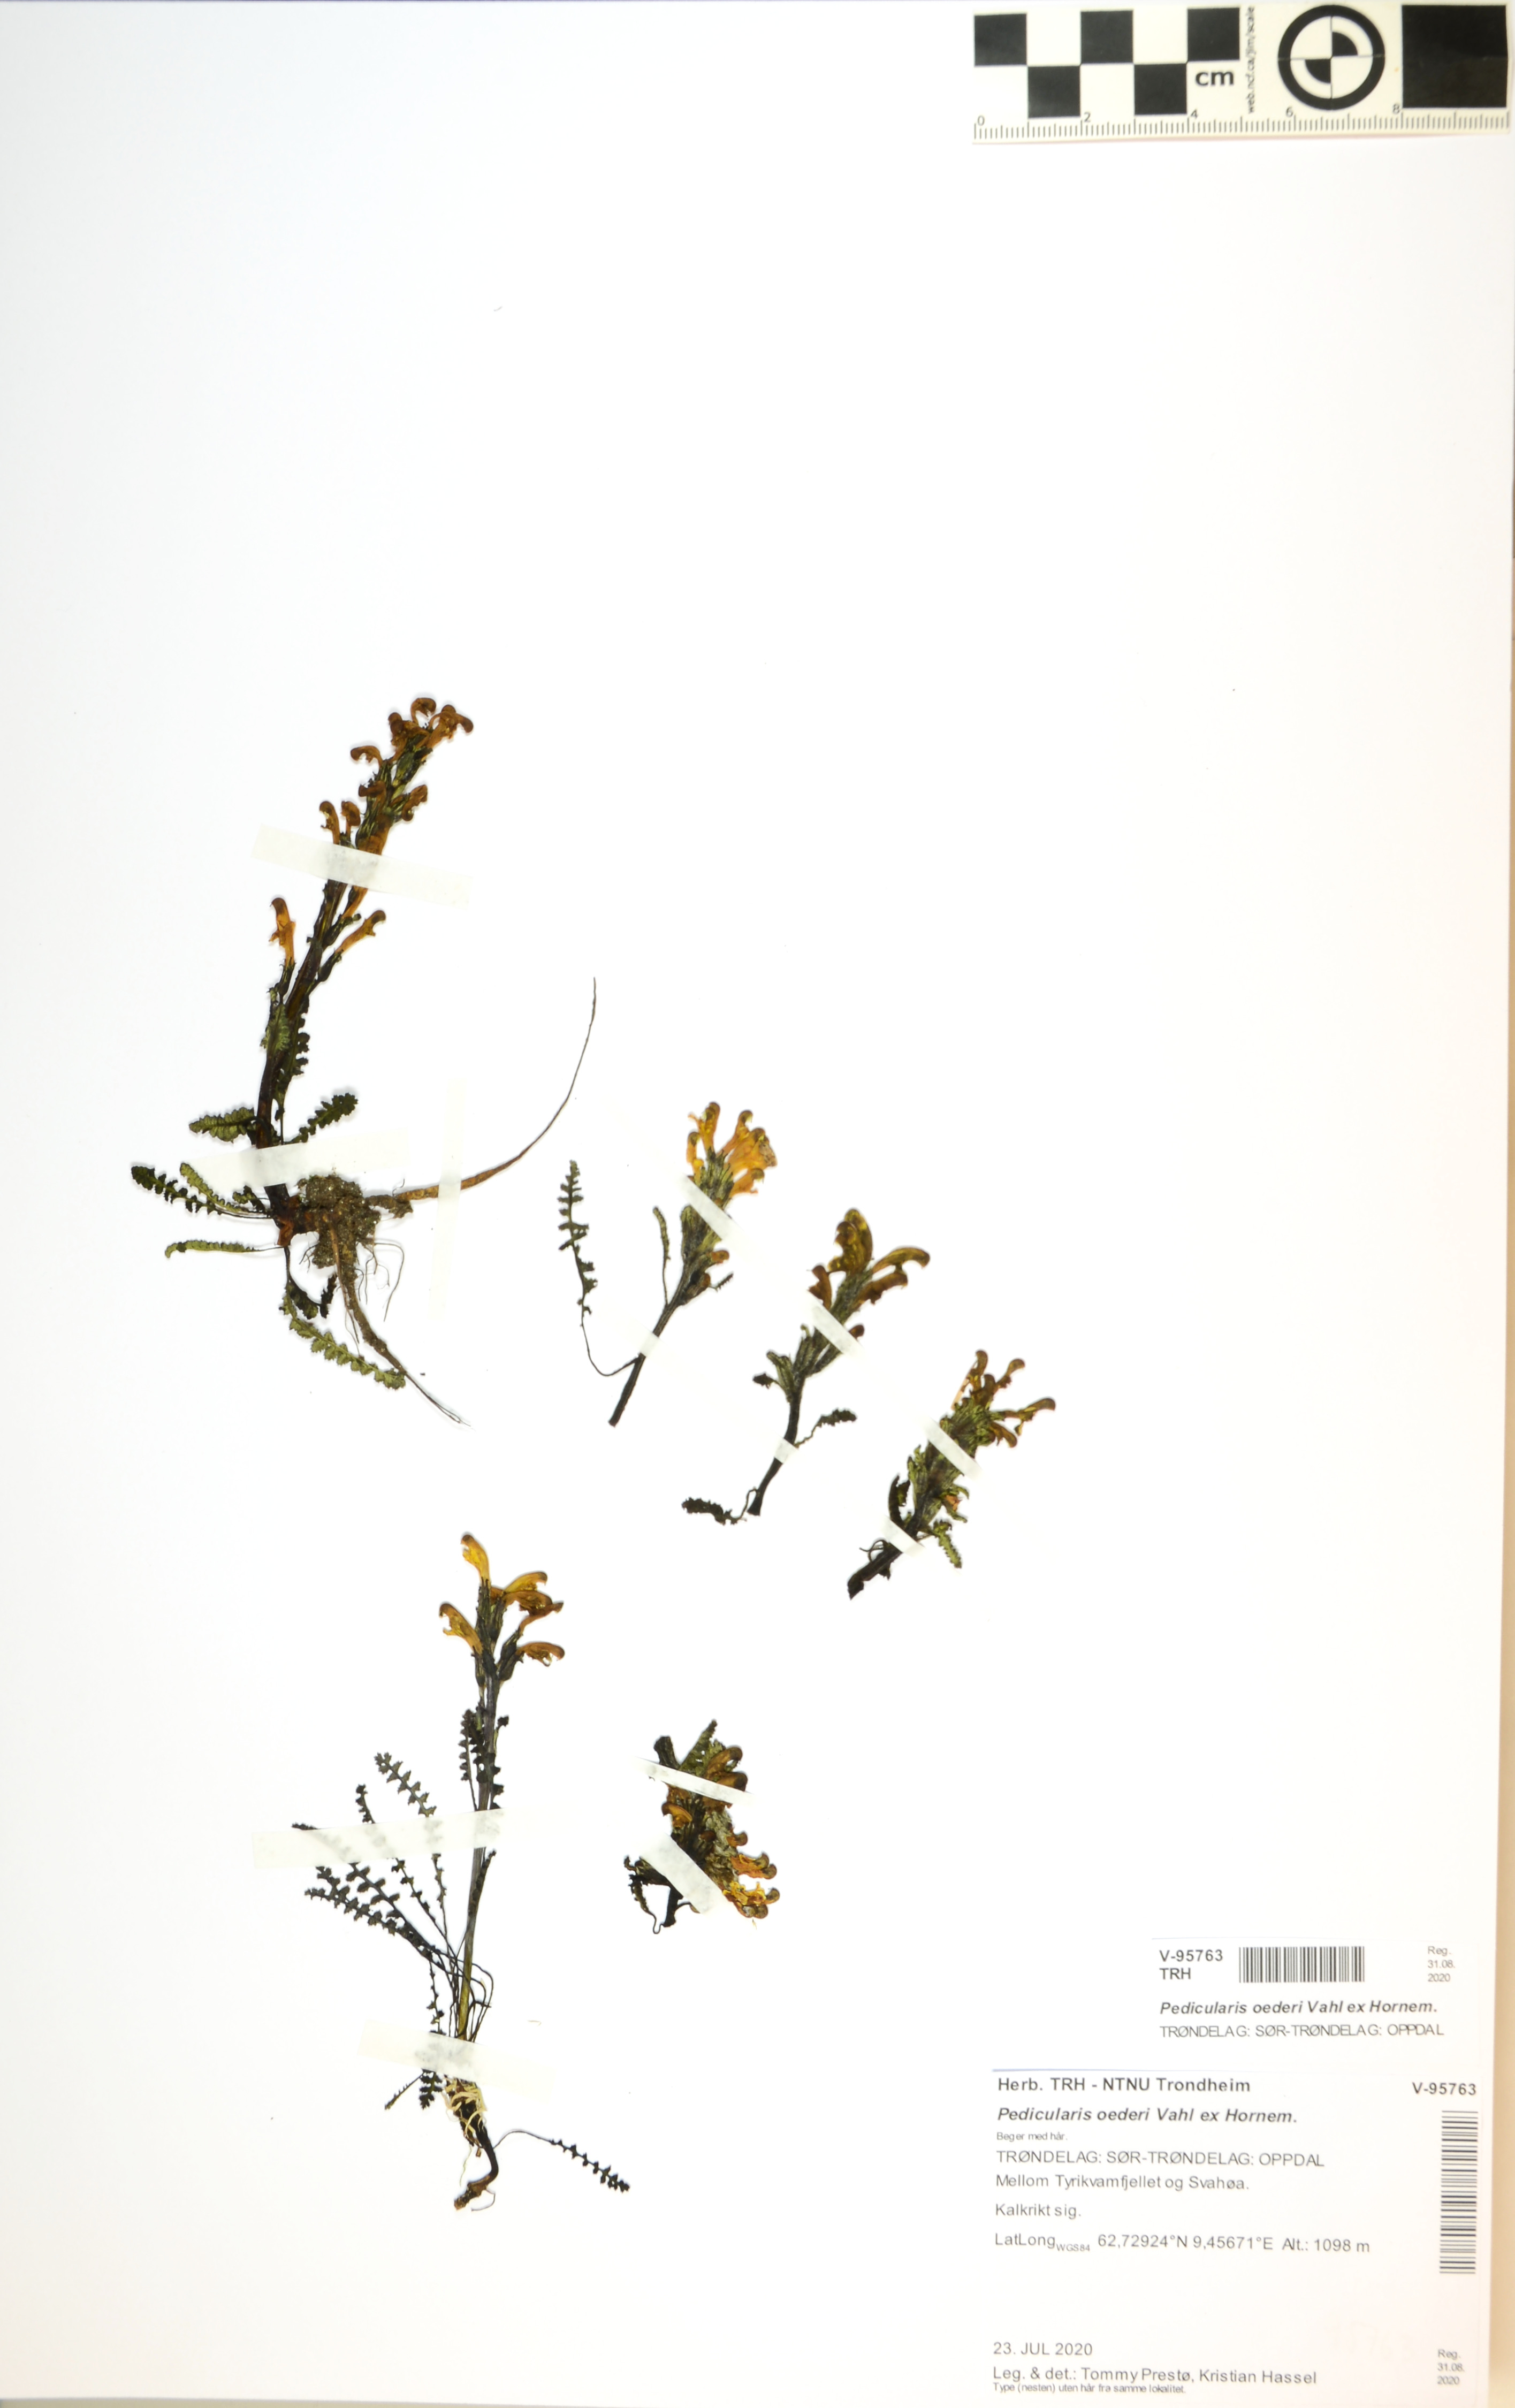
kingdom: Plantae
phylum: Tracheophyta
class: Magnoliopsida
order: Lamiales
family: Orobanchaceae
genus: Pedicularis
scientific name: Pedicularis oederi
